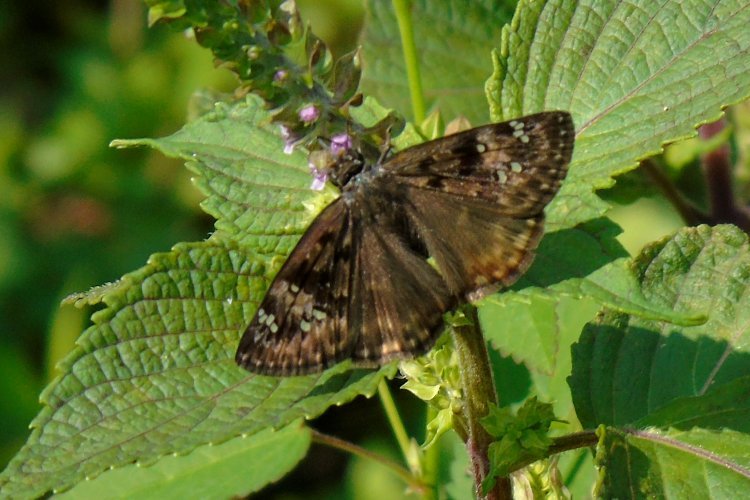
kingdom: Animalia
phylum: Arthropoda
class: Insecta
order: Lepidoptera
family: Hesperiidae
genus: Gesta
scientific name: Gesta
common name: Horace's Duskywing
